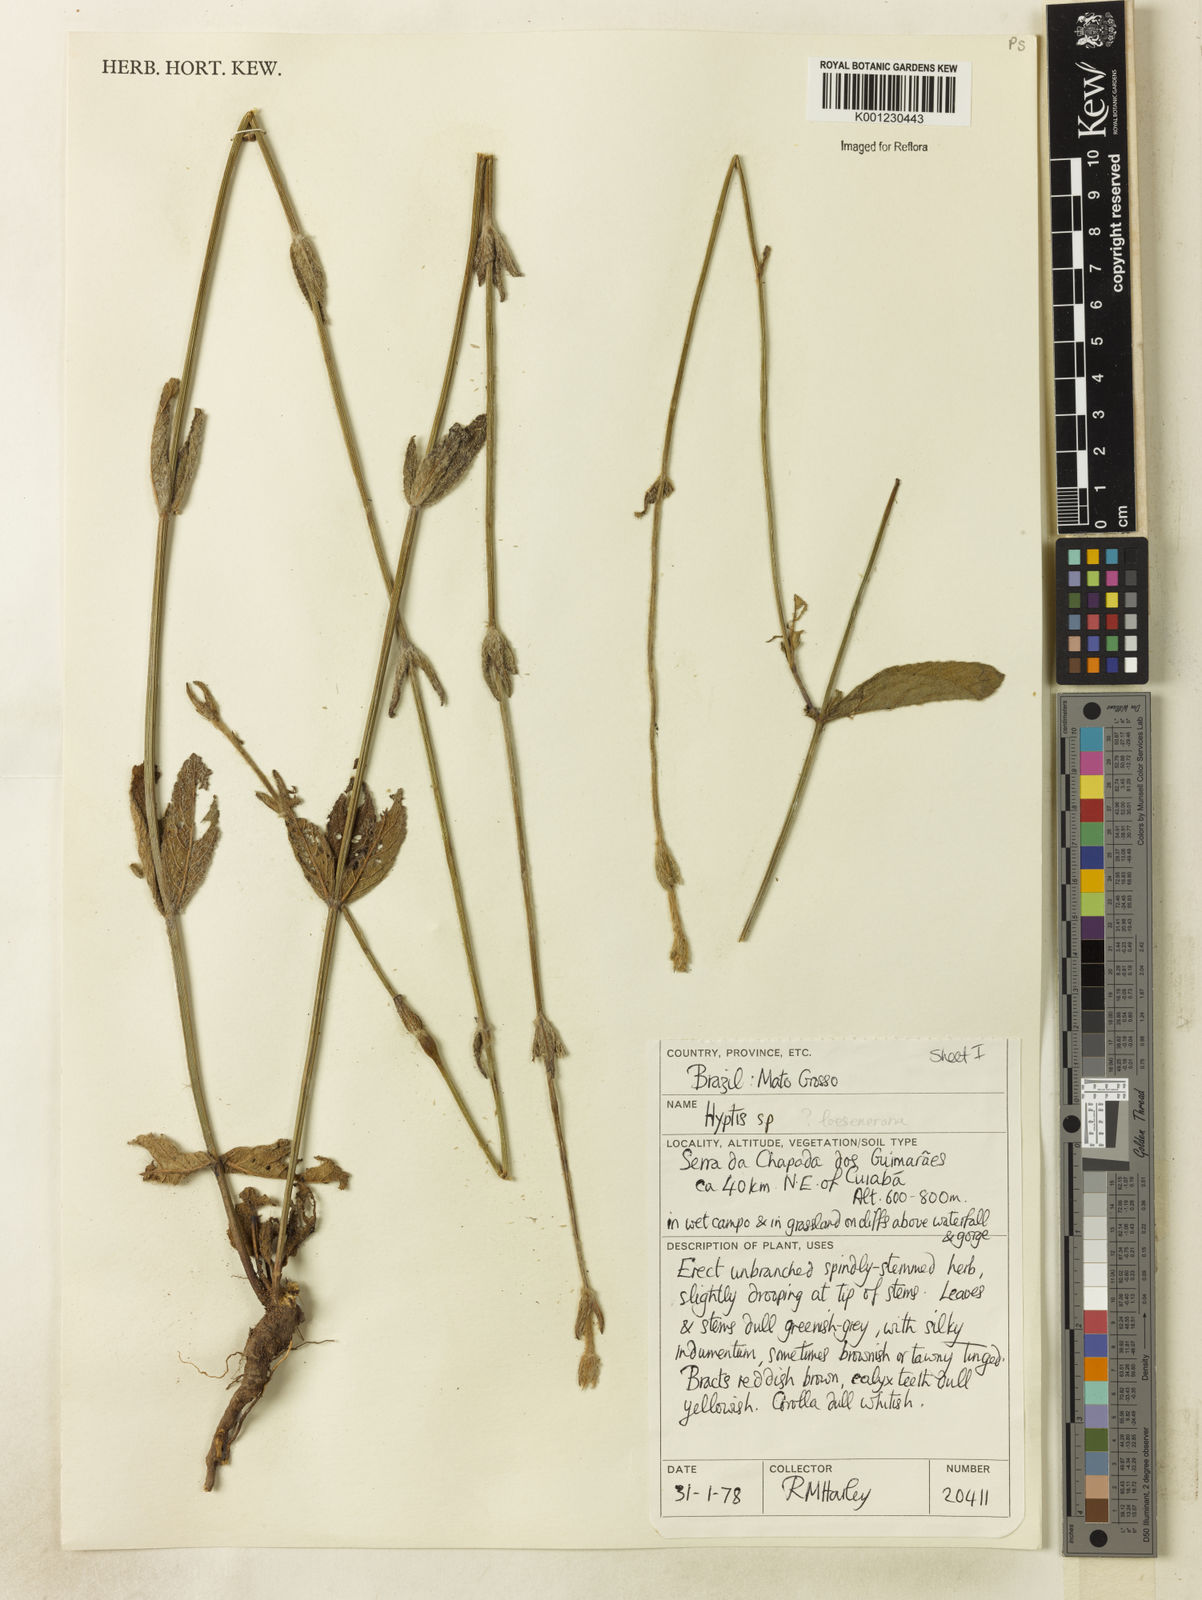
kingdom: Plantae
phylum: Tracheophyta
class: Magnoliopsida
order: Lamiales
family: Lamiaceae
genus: Hyptis
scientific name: Hyptis loeseneriana
